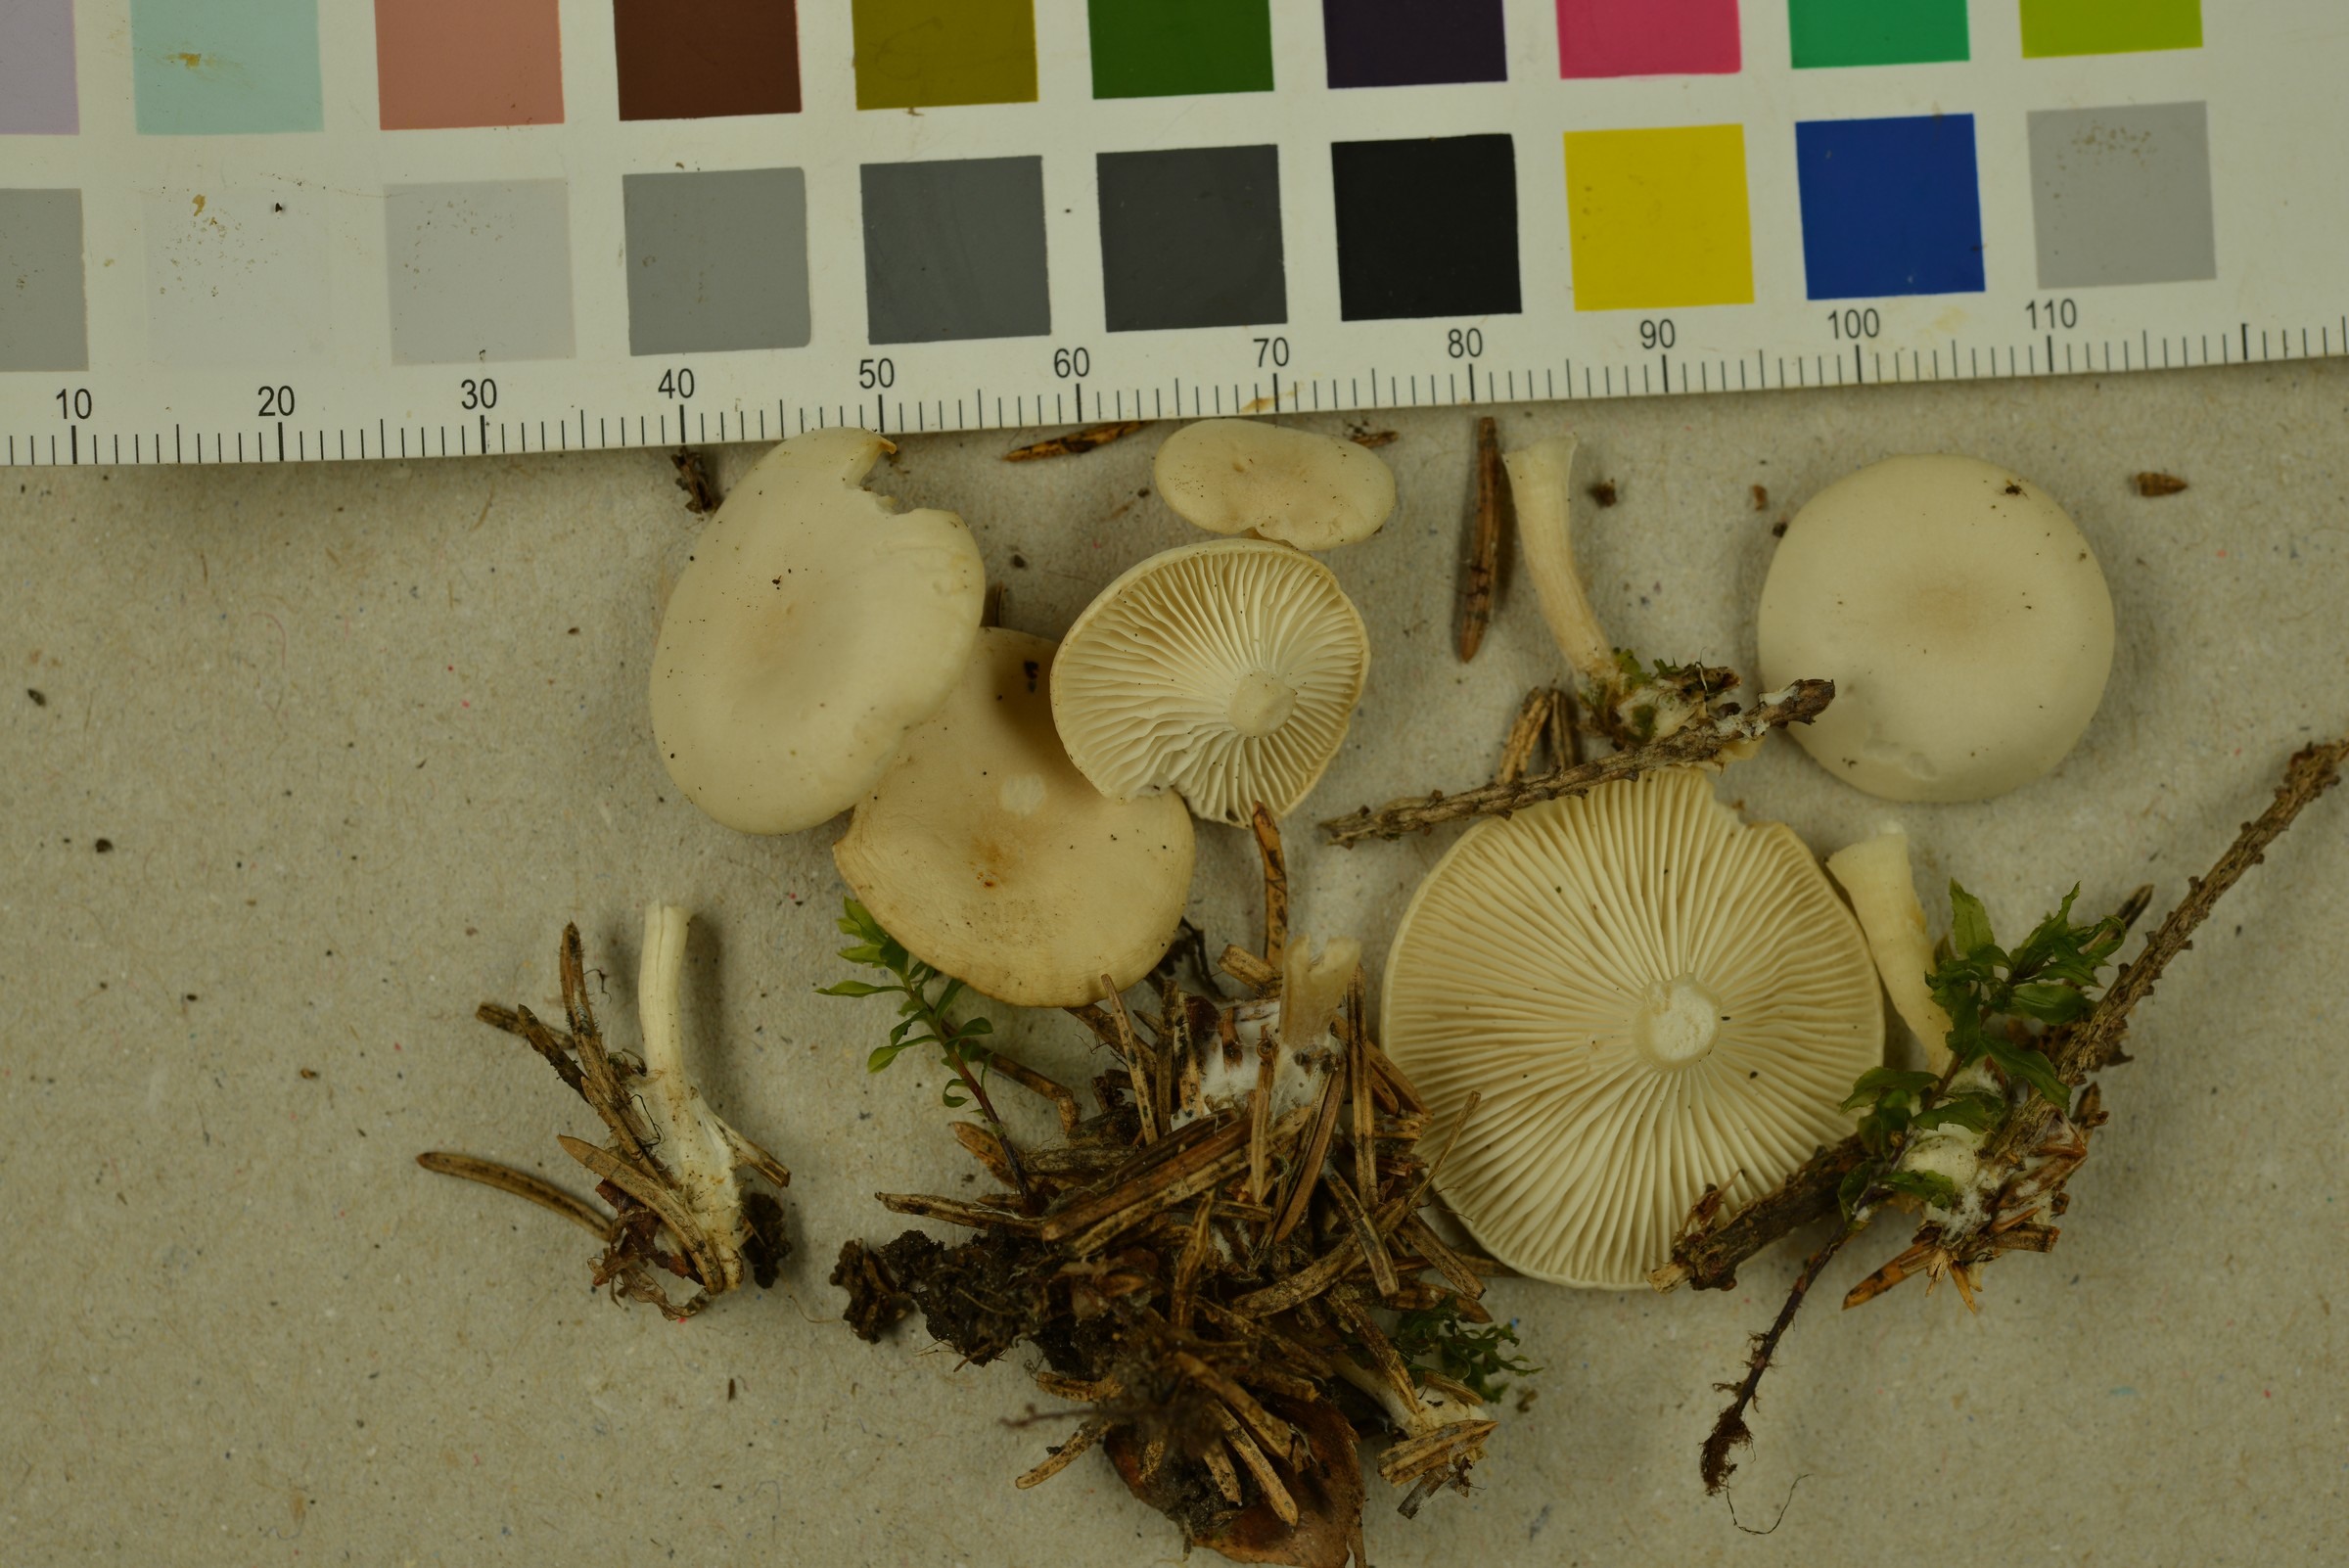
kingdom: Fungi
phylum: Basidiomycota
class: Agaricomycetes
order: Agaricales
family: Tricholomataceae
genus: Leucocybe
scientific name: Leucocybe candicans
